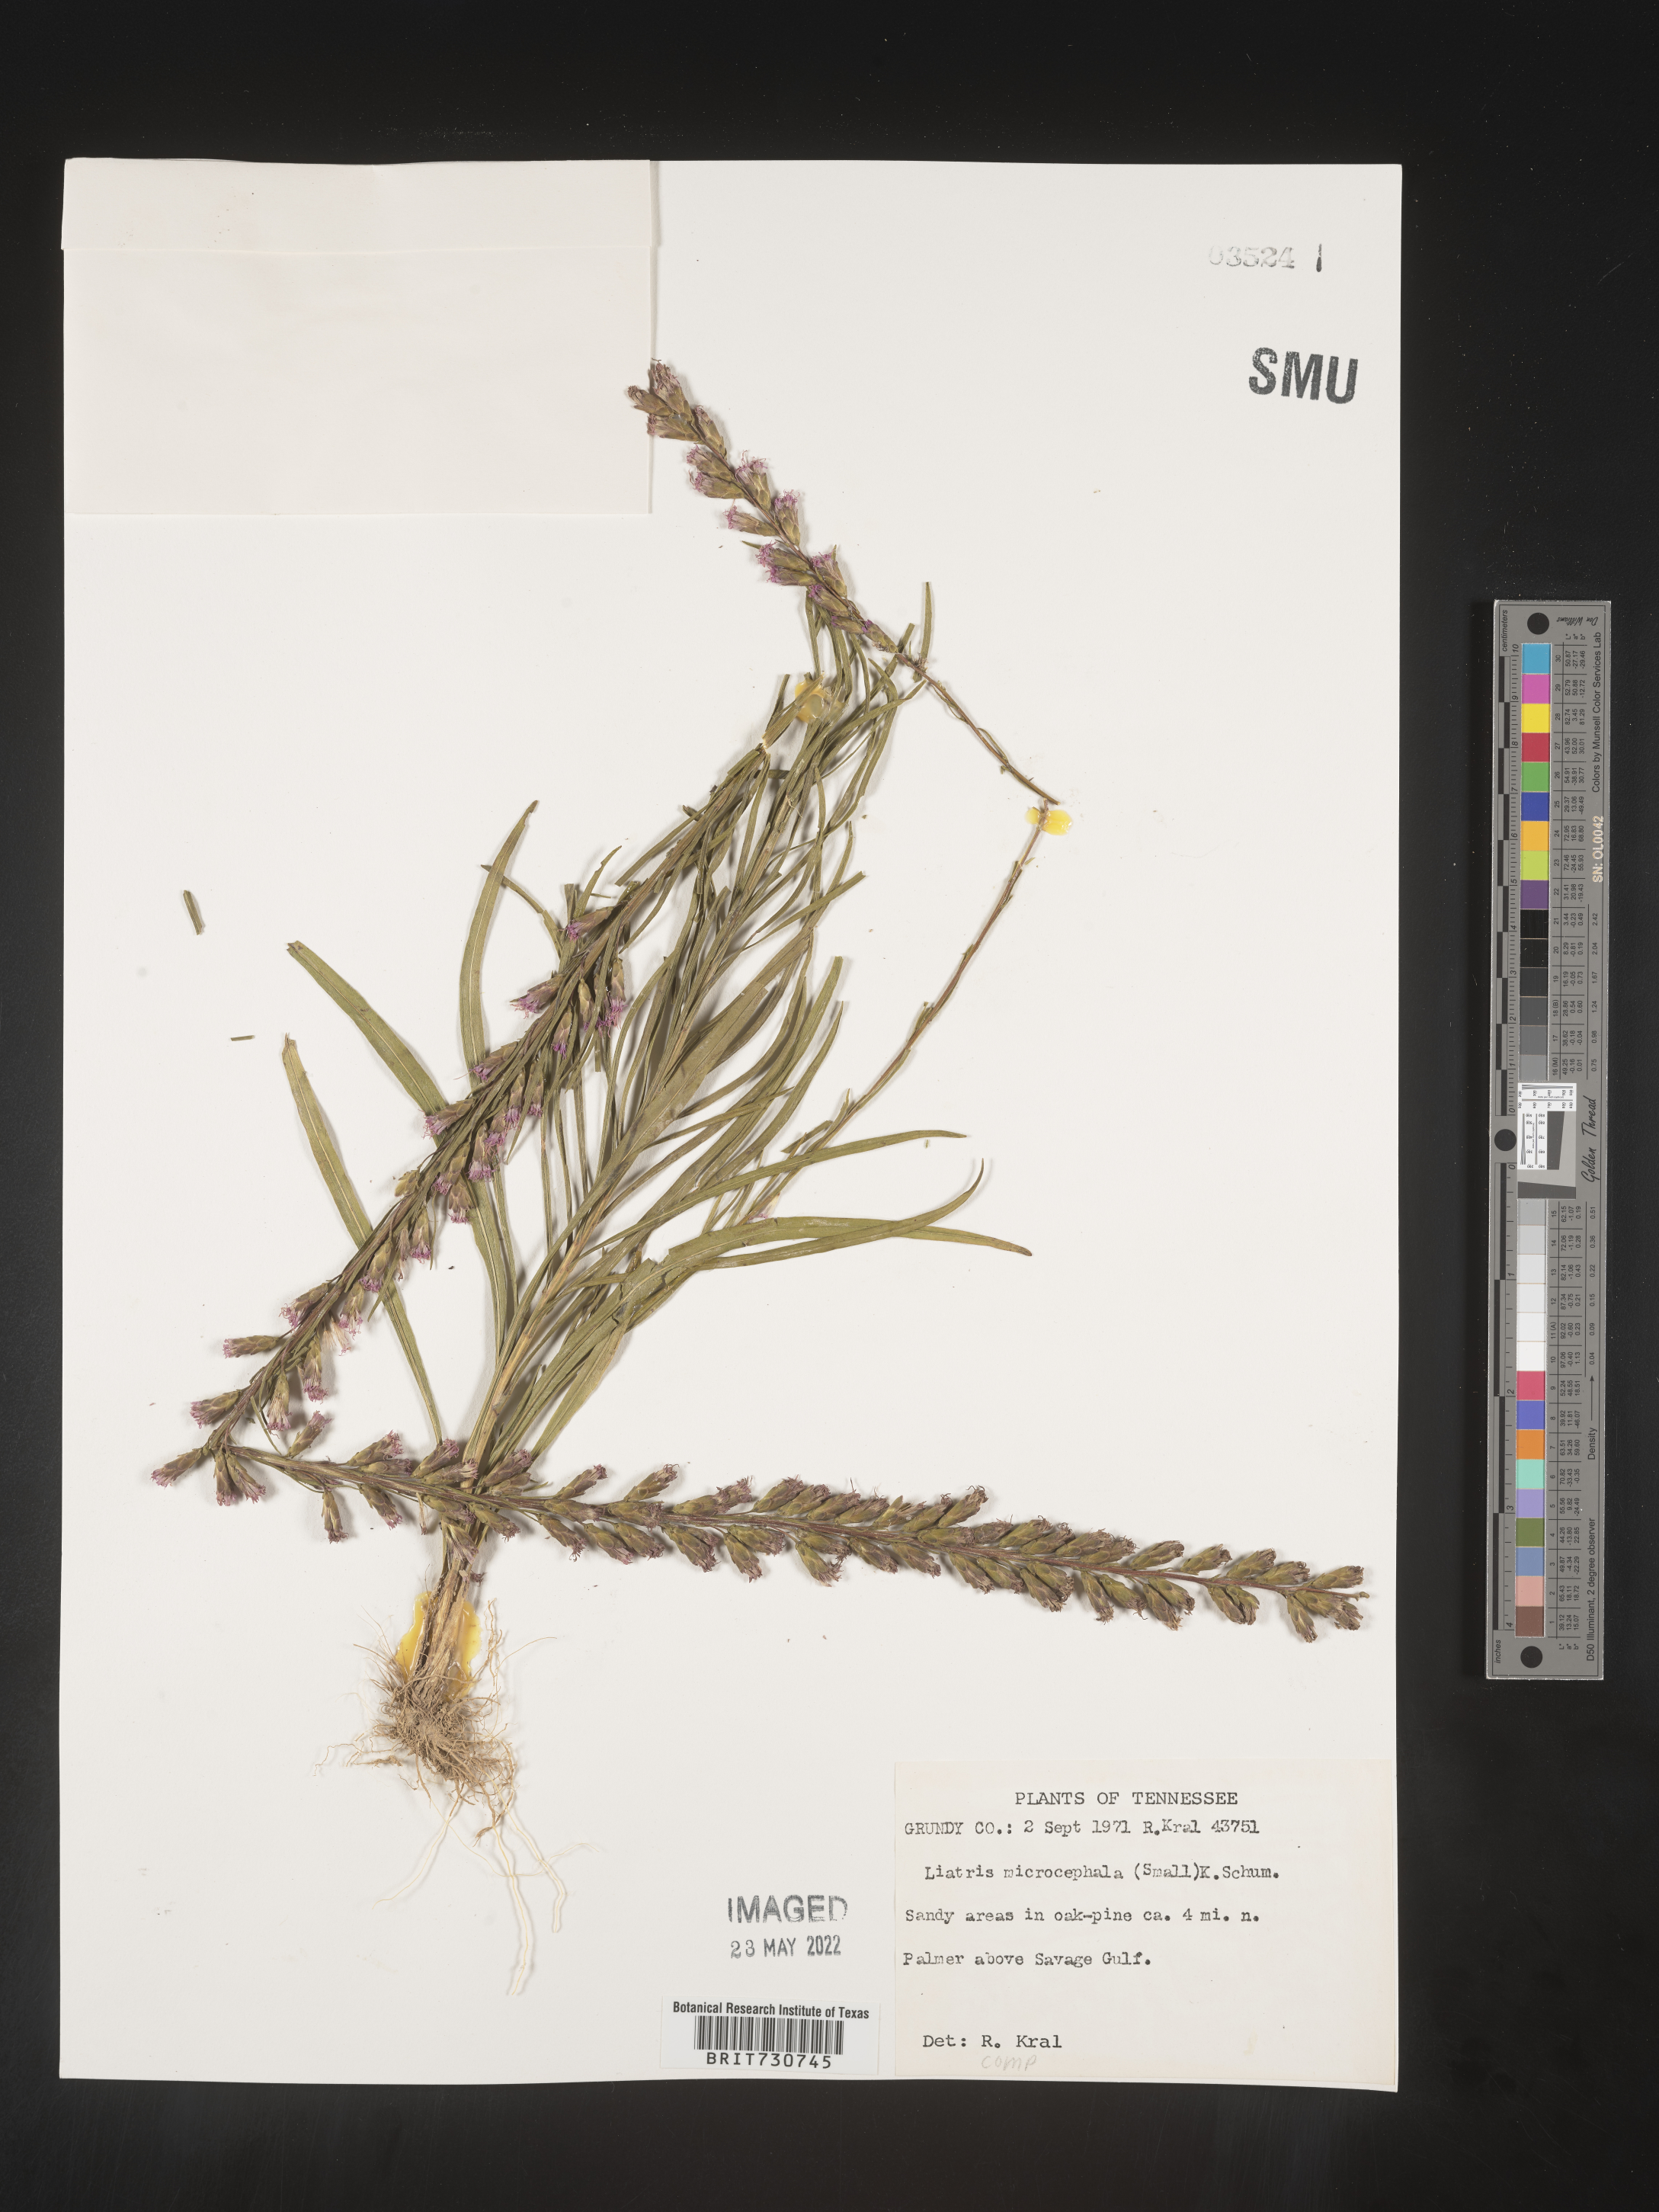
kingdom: Plantae
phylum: Tracheophyta
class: Magnoliopsida
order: Asterales
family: Asteraceae
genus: Liatris
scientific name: Liatris microcephala
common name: Small-head gayfeather
